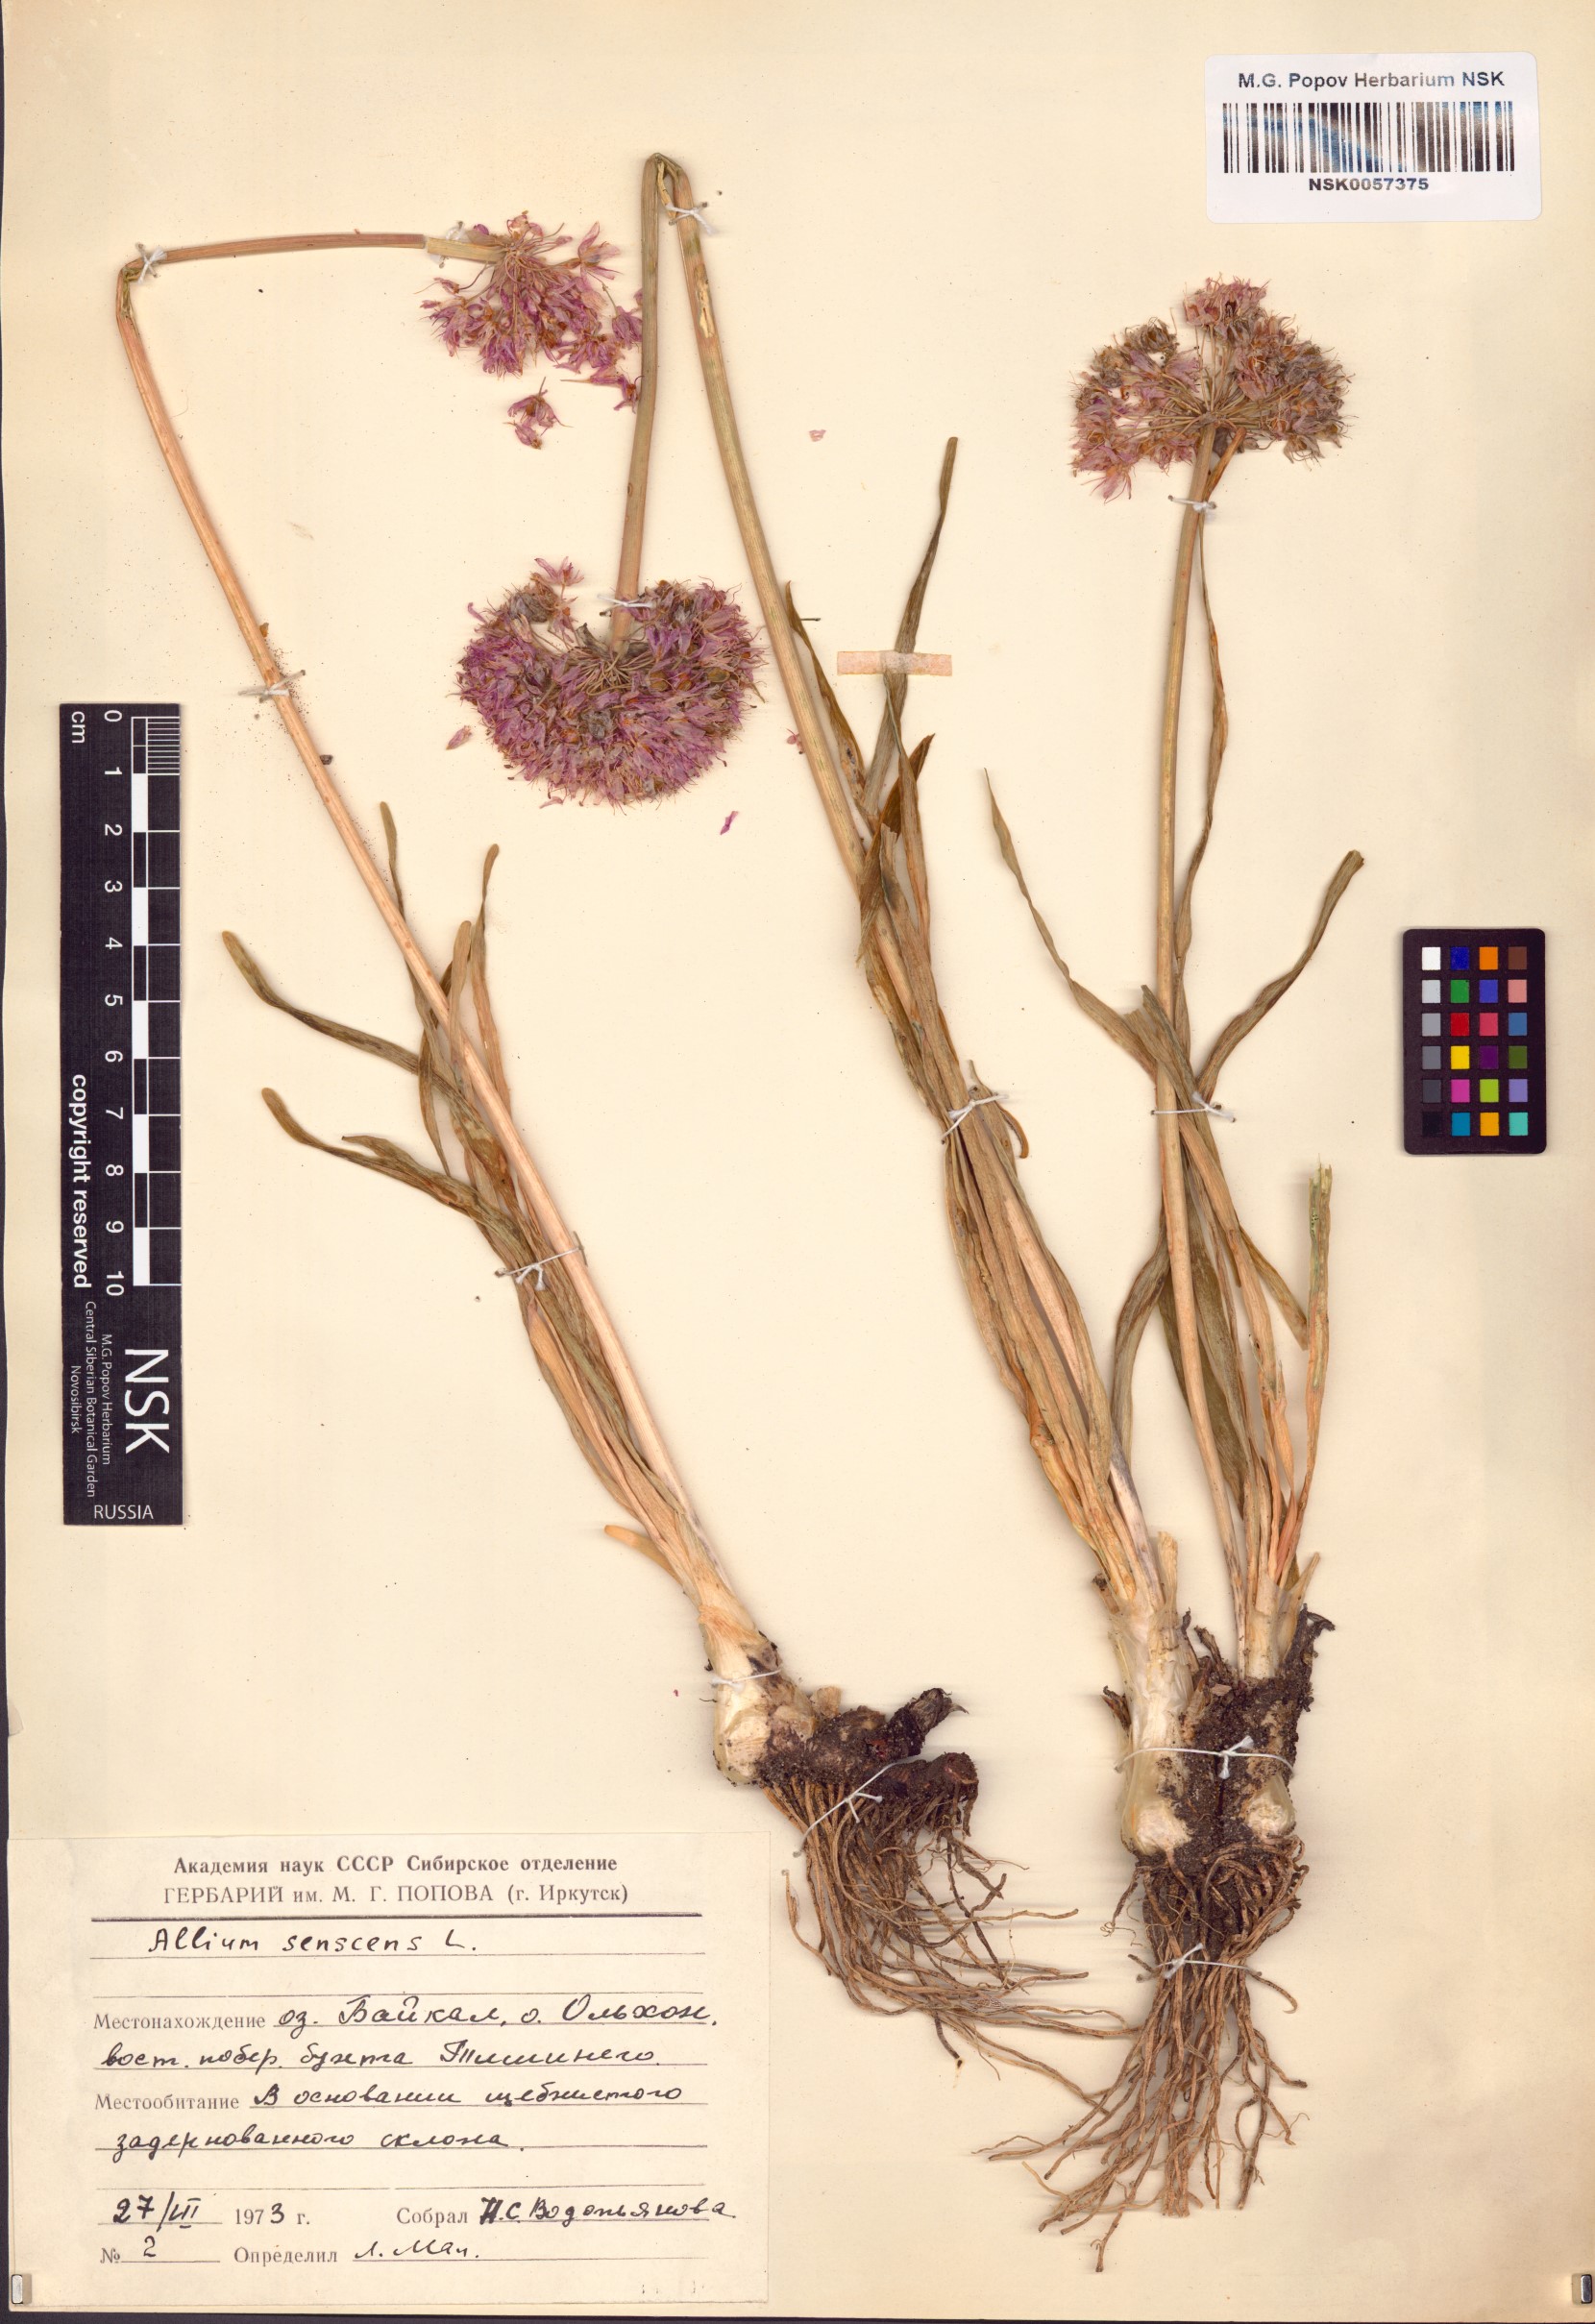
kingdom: Plantae
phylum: Tracheophyta
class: Liliopsida
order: Asparagales
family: Amaryllidaceae
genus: Allium
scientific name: Allium senescens
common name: German garlic
